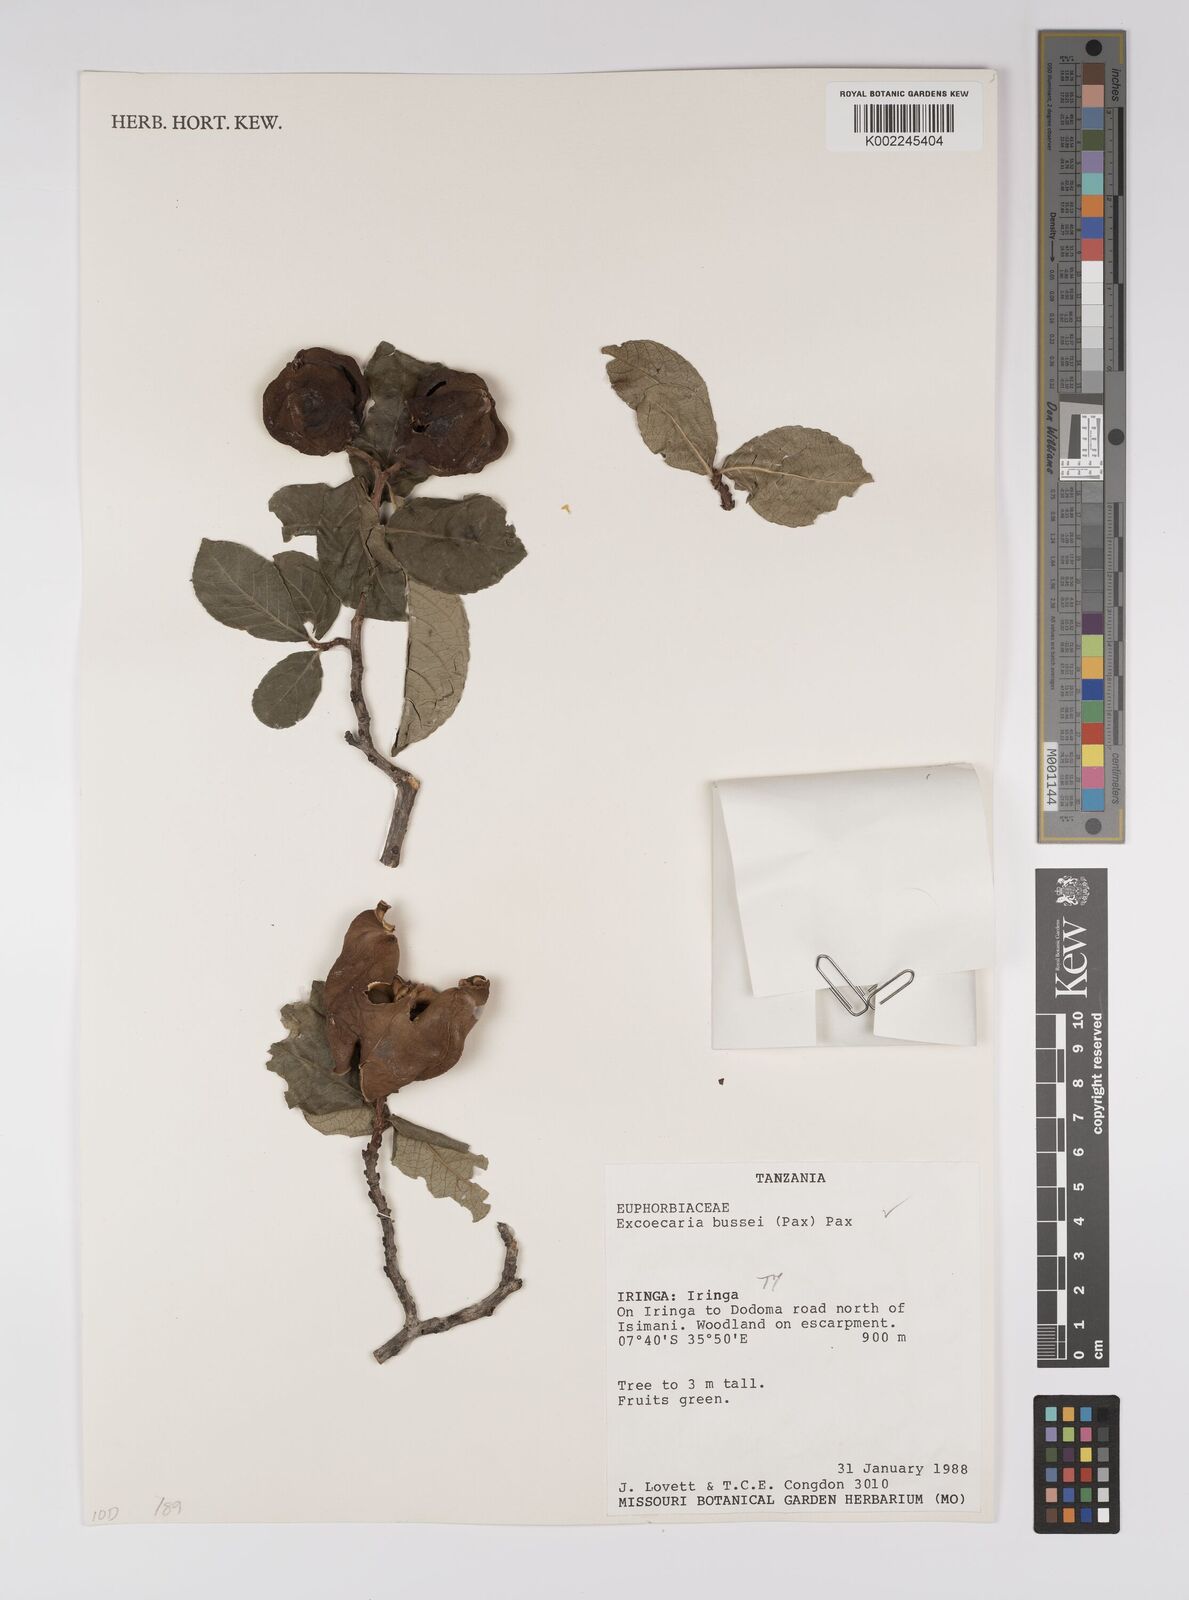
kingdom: Plantae
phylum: Tracheophyta
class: Magnoliopsida
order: Malpighiales
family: Euphorbiaceae
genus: Excoecaria
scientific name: Excoecaria bussei
